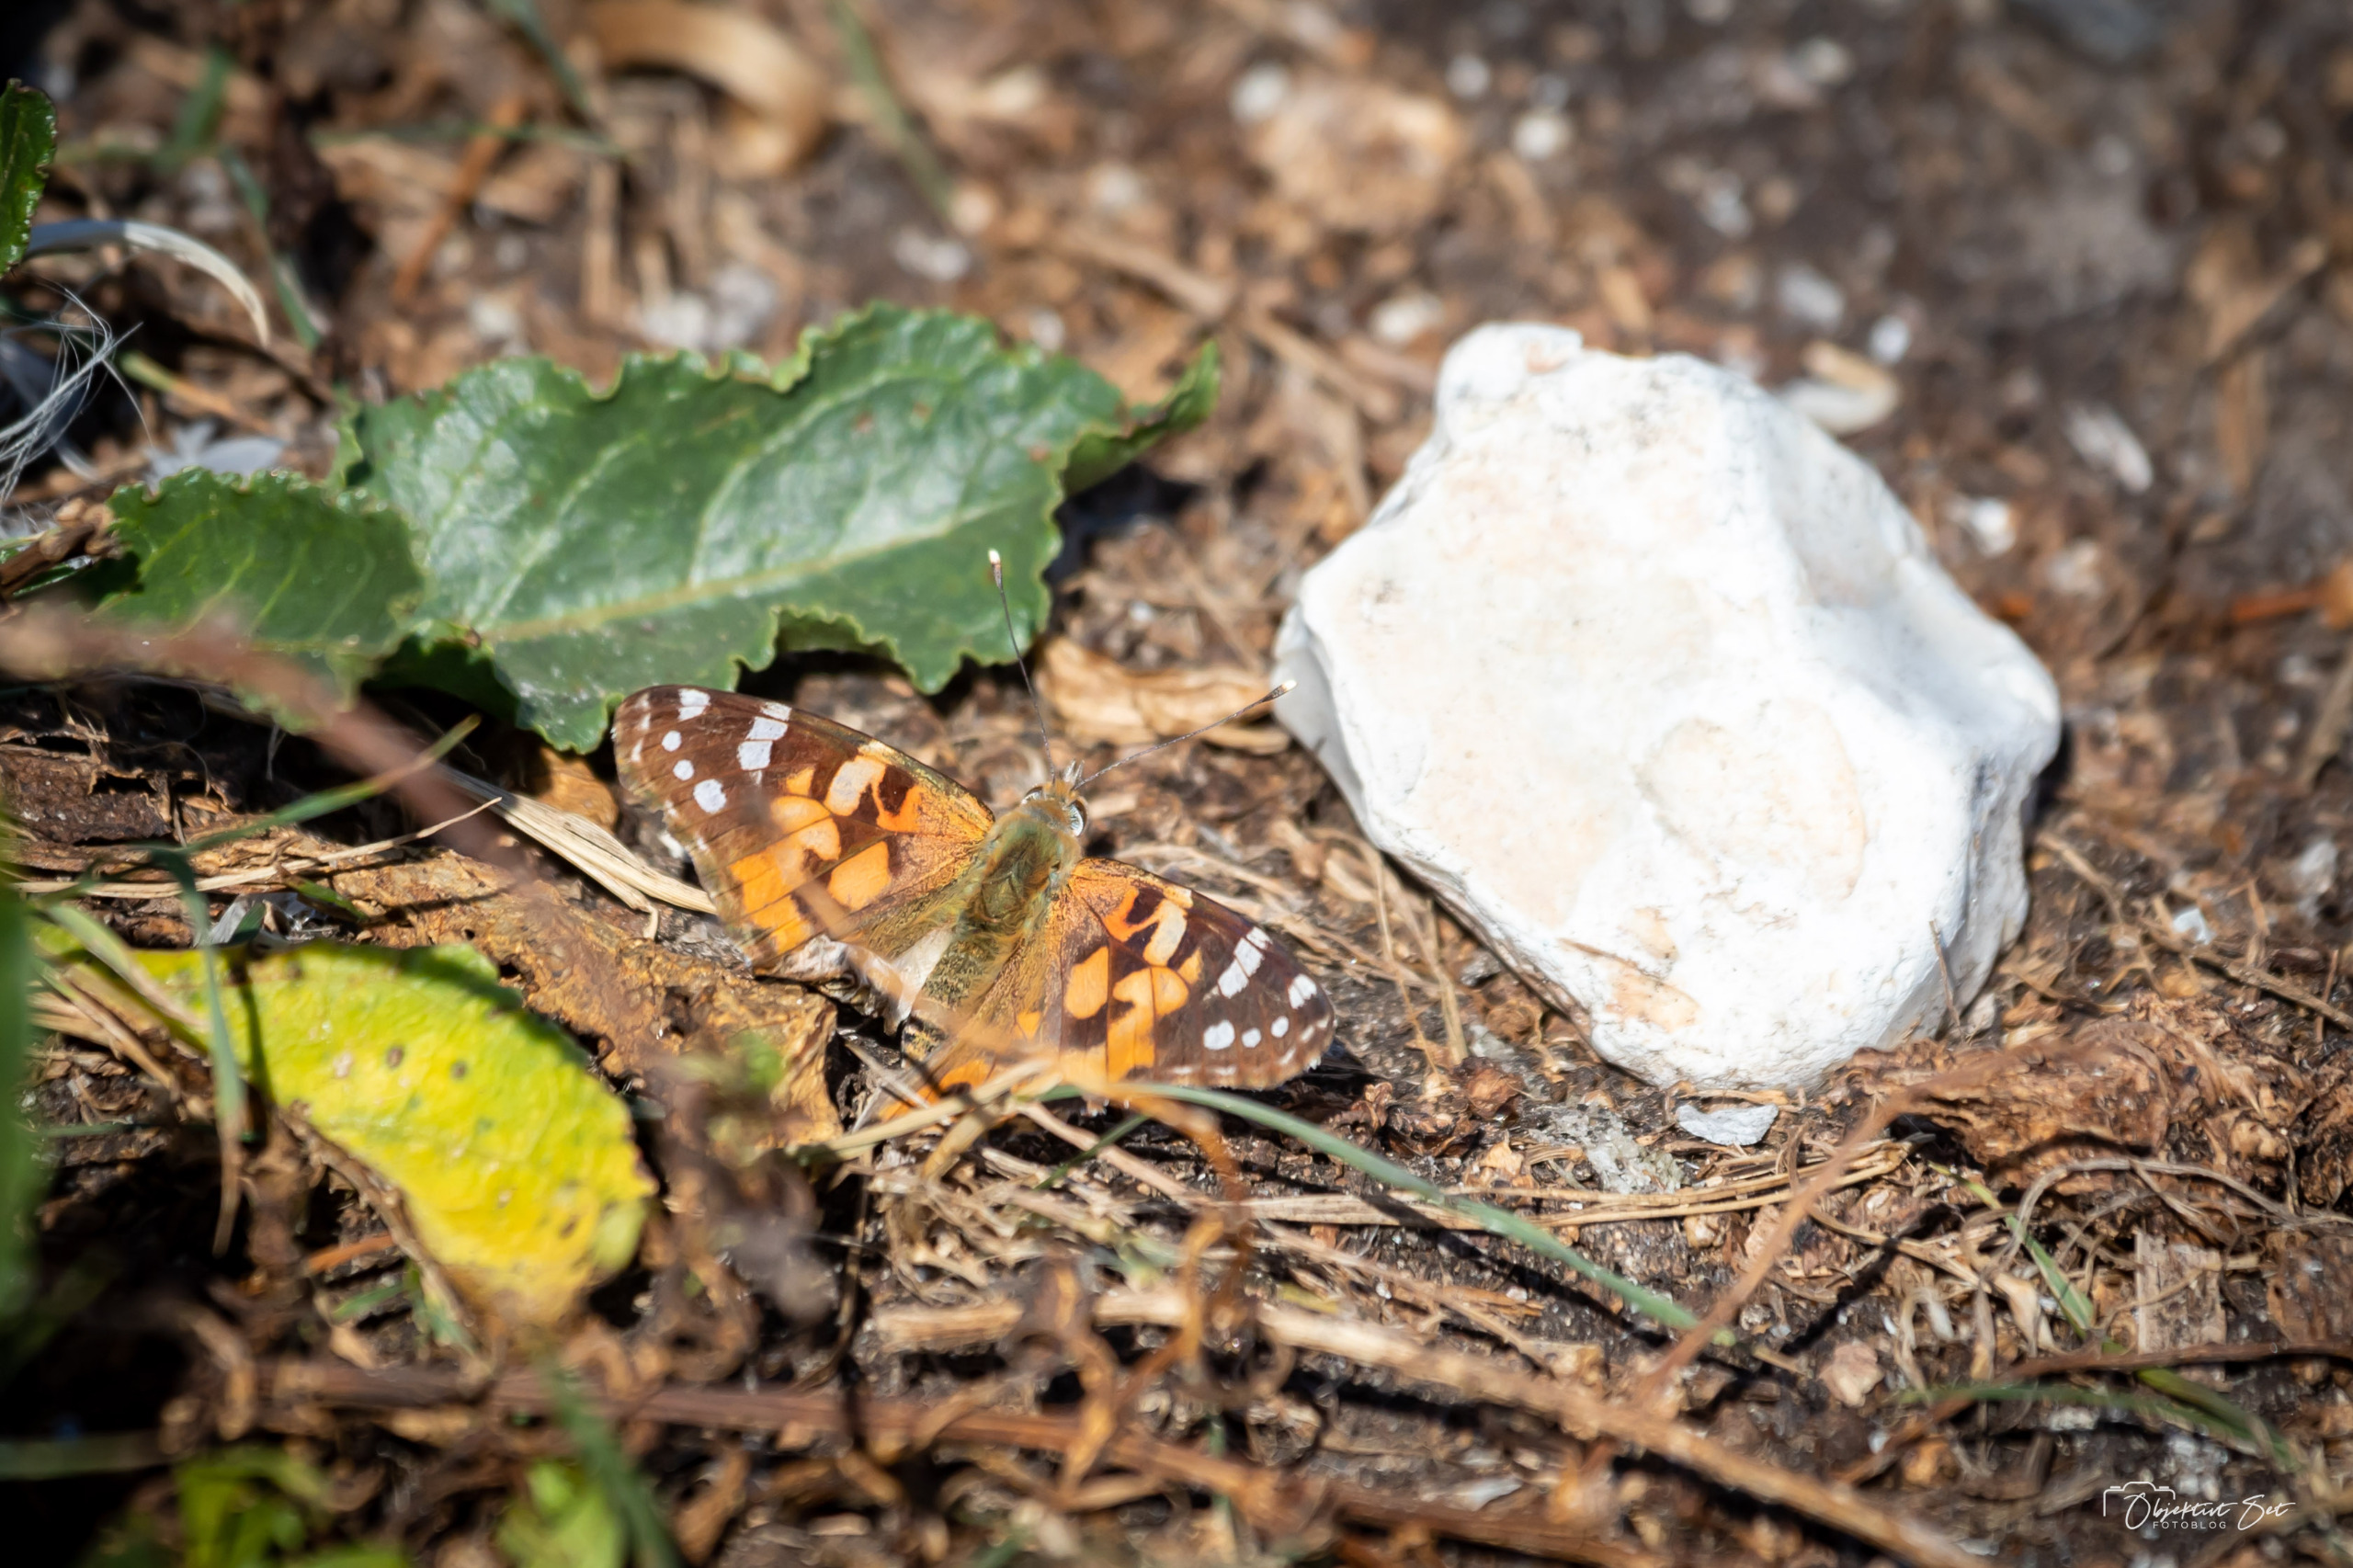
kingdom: Animalia
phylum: Arthropoda
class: Insecta
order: Lepidoptera
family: Nymphalidae
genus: Vanessa
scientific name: Vanessa cardui
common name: Tidselsommerfugl
